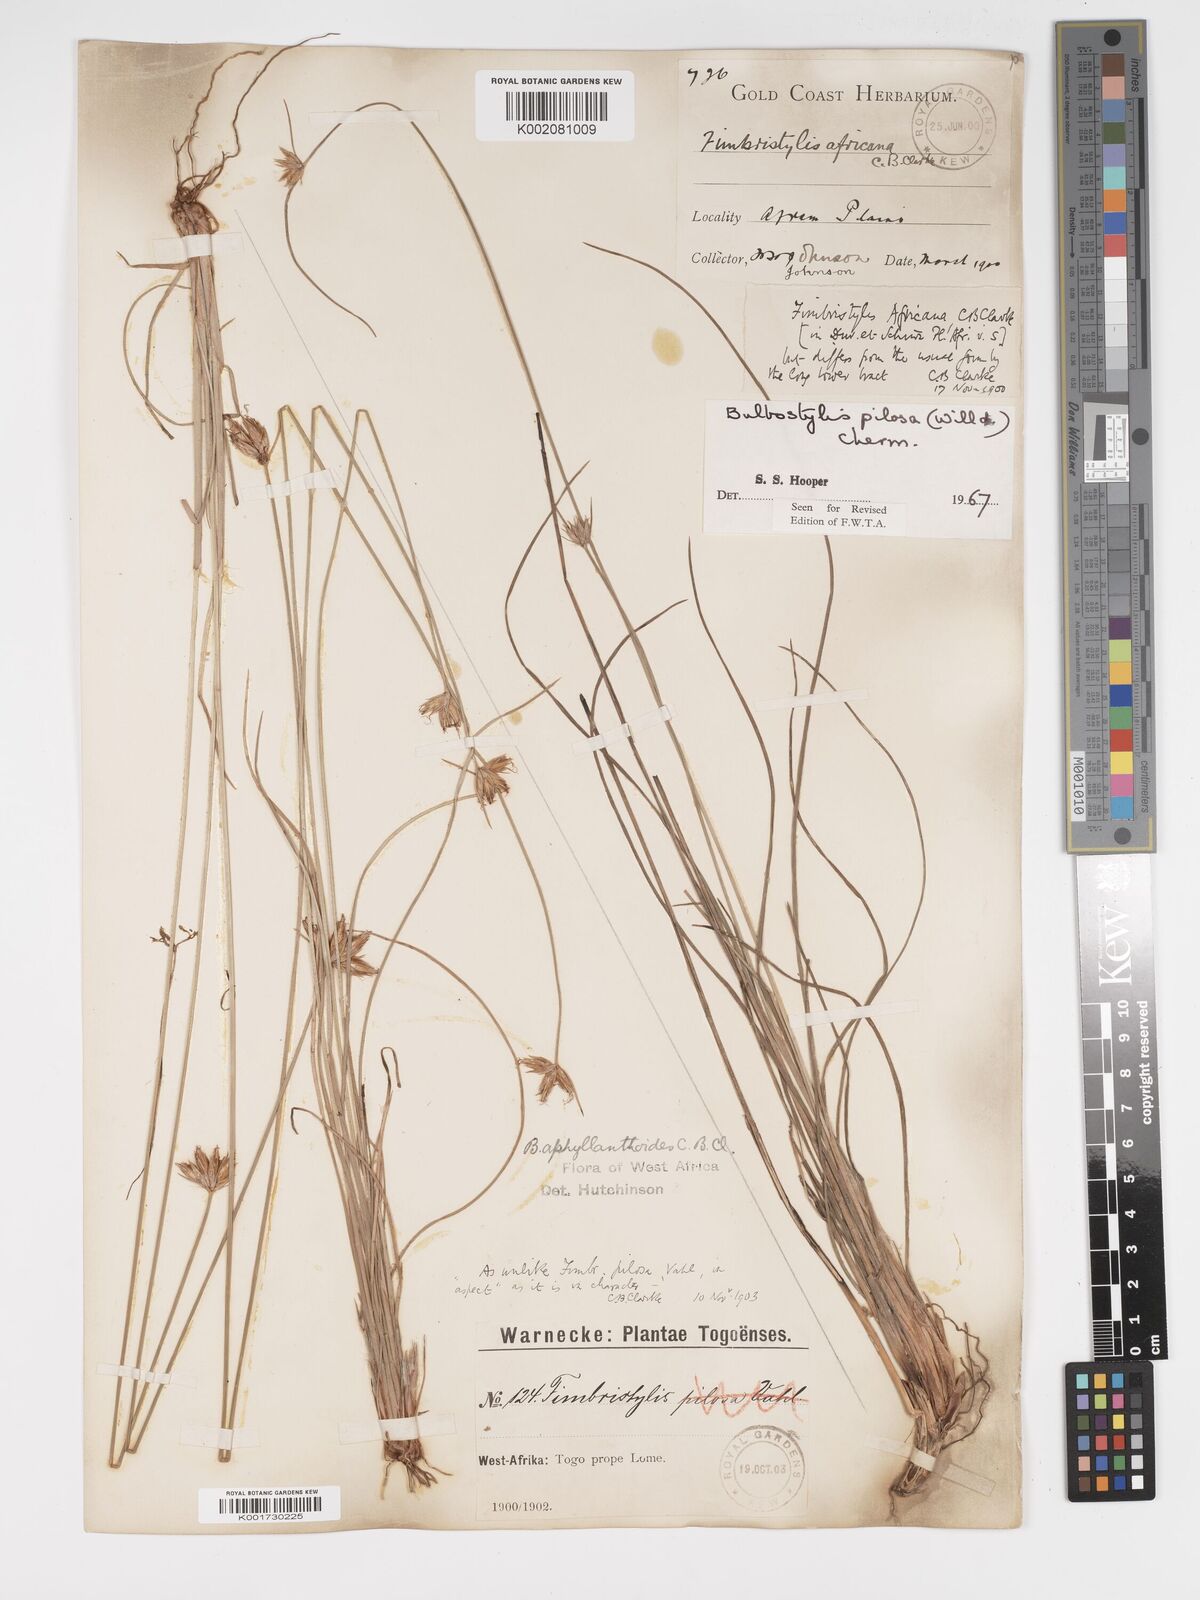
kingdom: Plantae
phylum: Tracheophyta
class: Liliopsida
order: Poales
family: Cyperaceae
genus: Bulbostylis
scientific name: Bulbostylis pilosa
